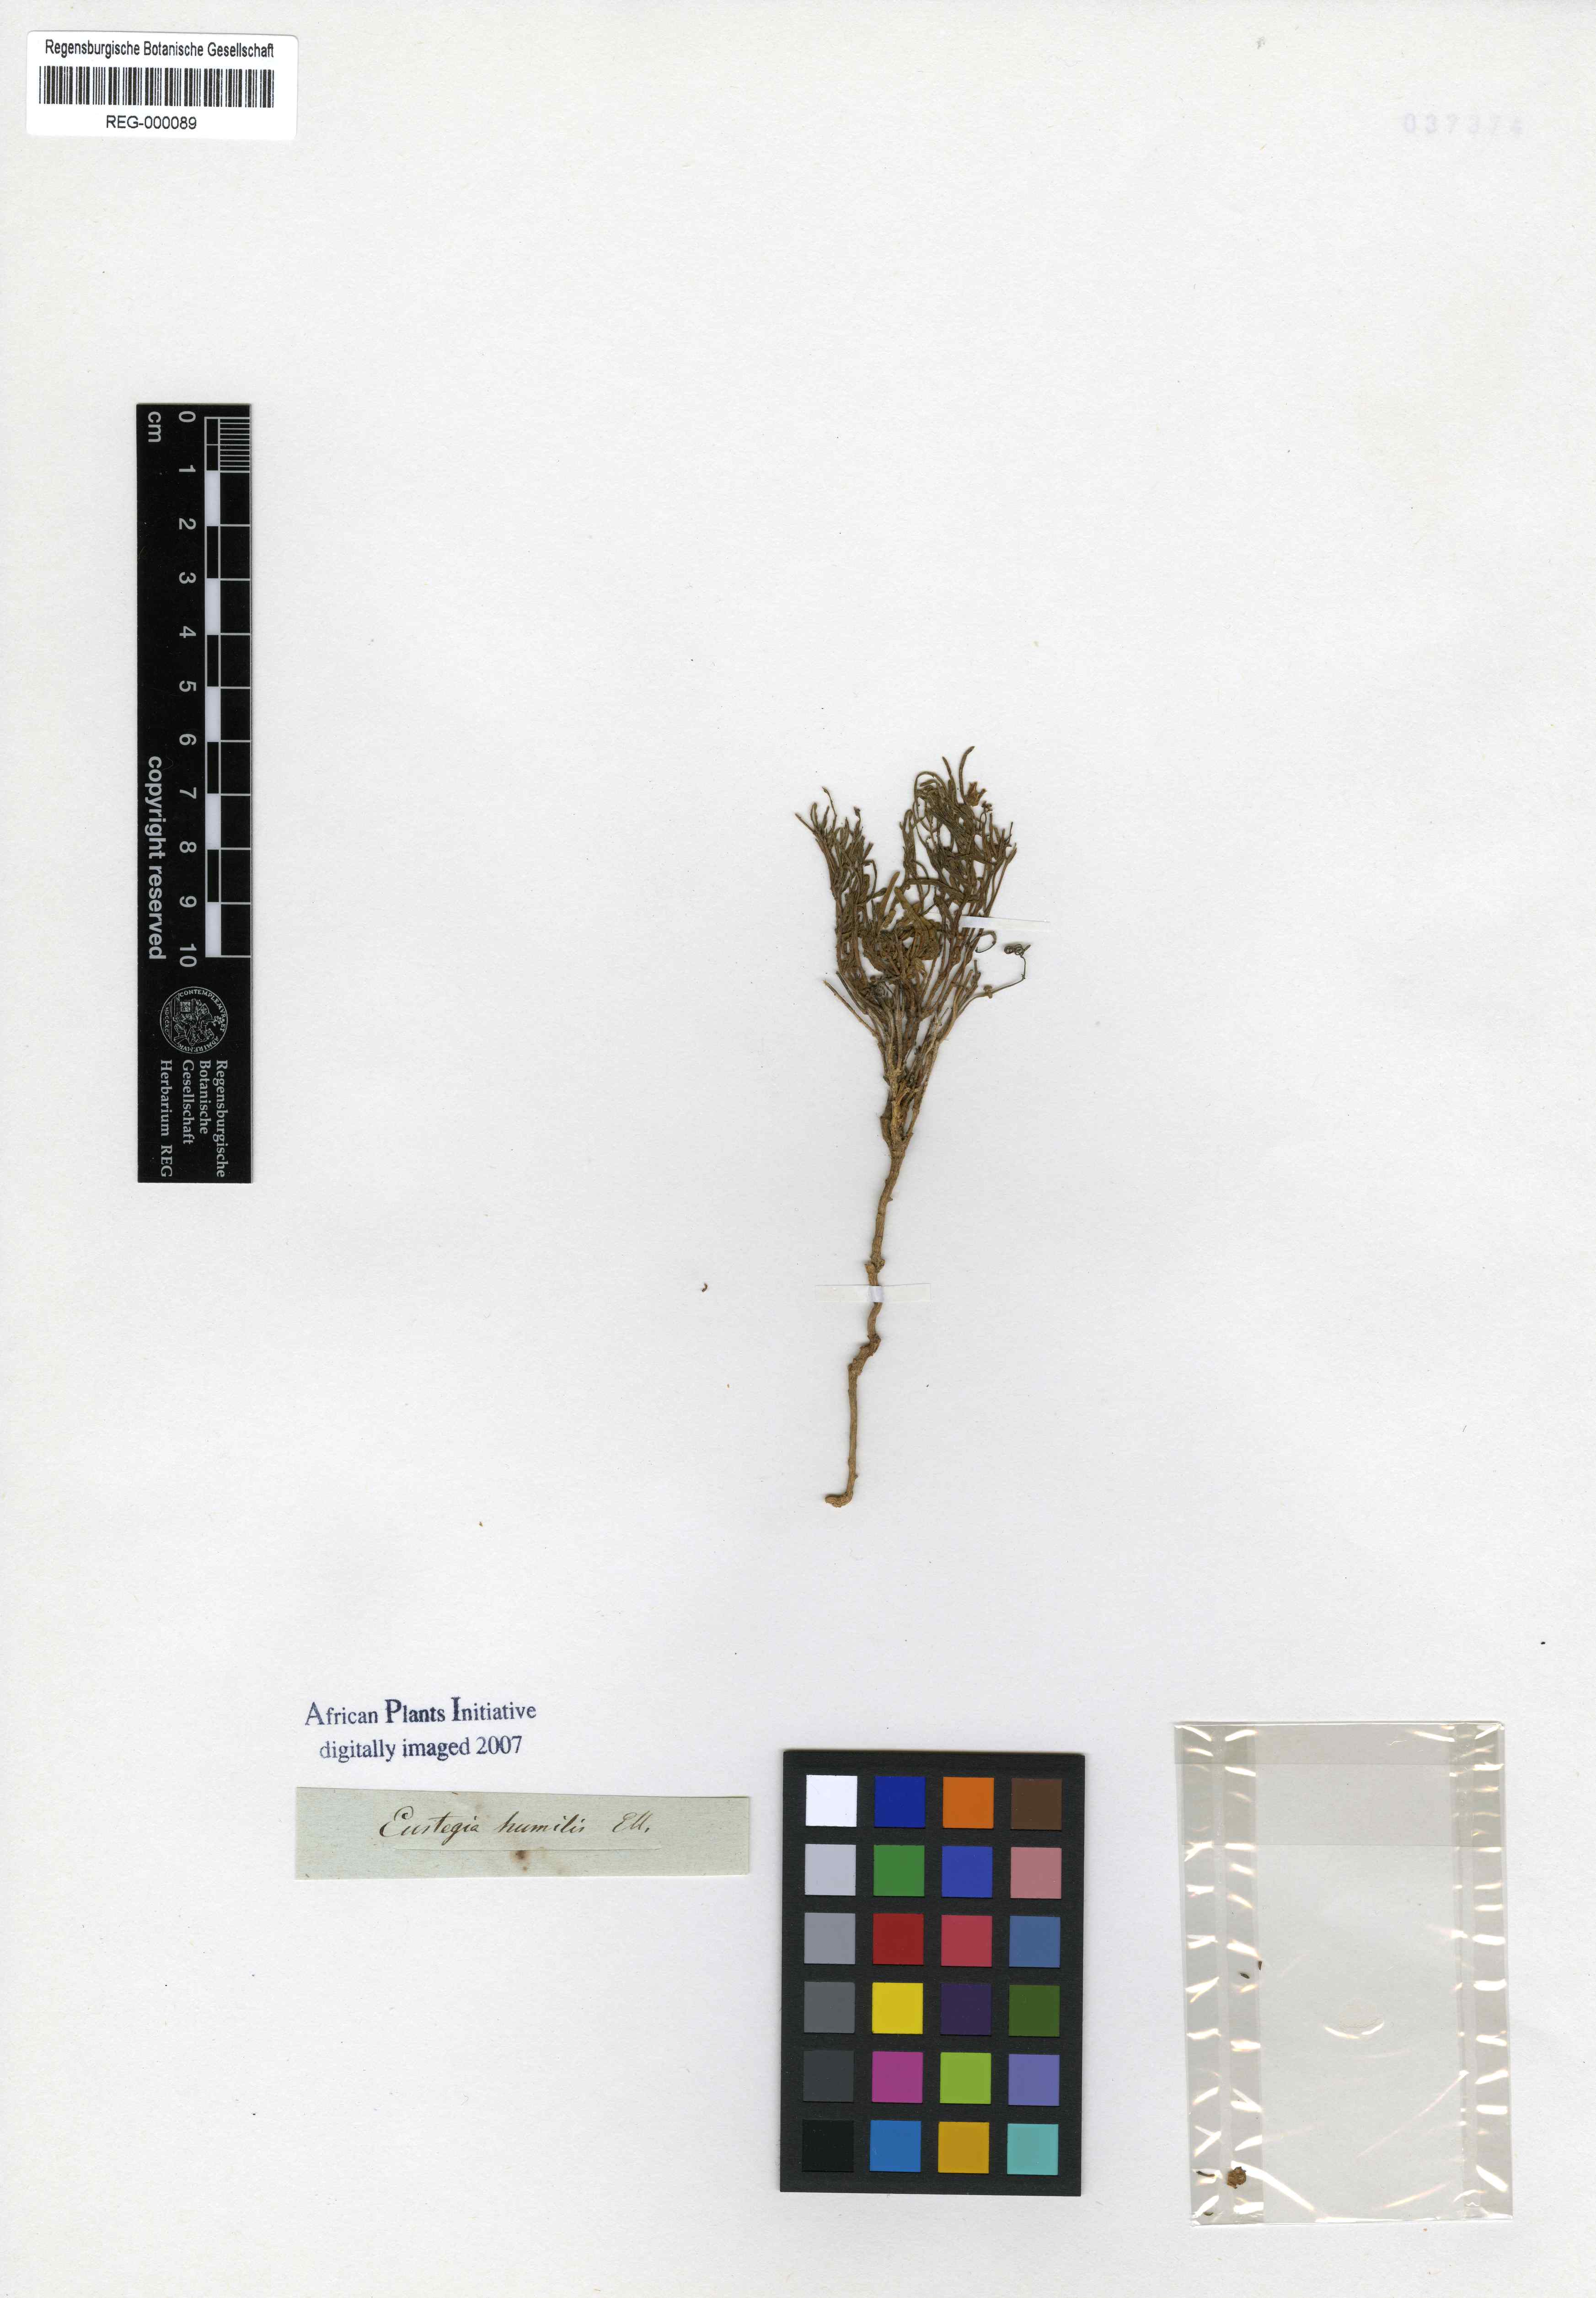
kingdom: Plantae
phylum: Tracheophyta
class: Magnoliopsida
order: Gentianales
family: Apocynaceae
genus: Eustegia
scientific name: Eustegia filiformis
